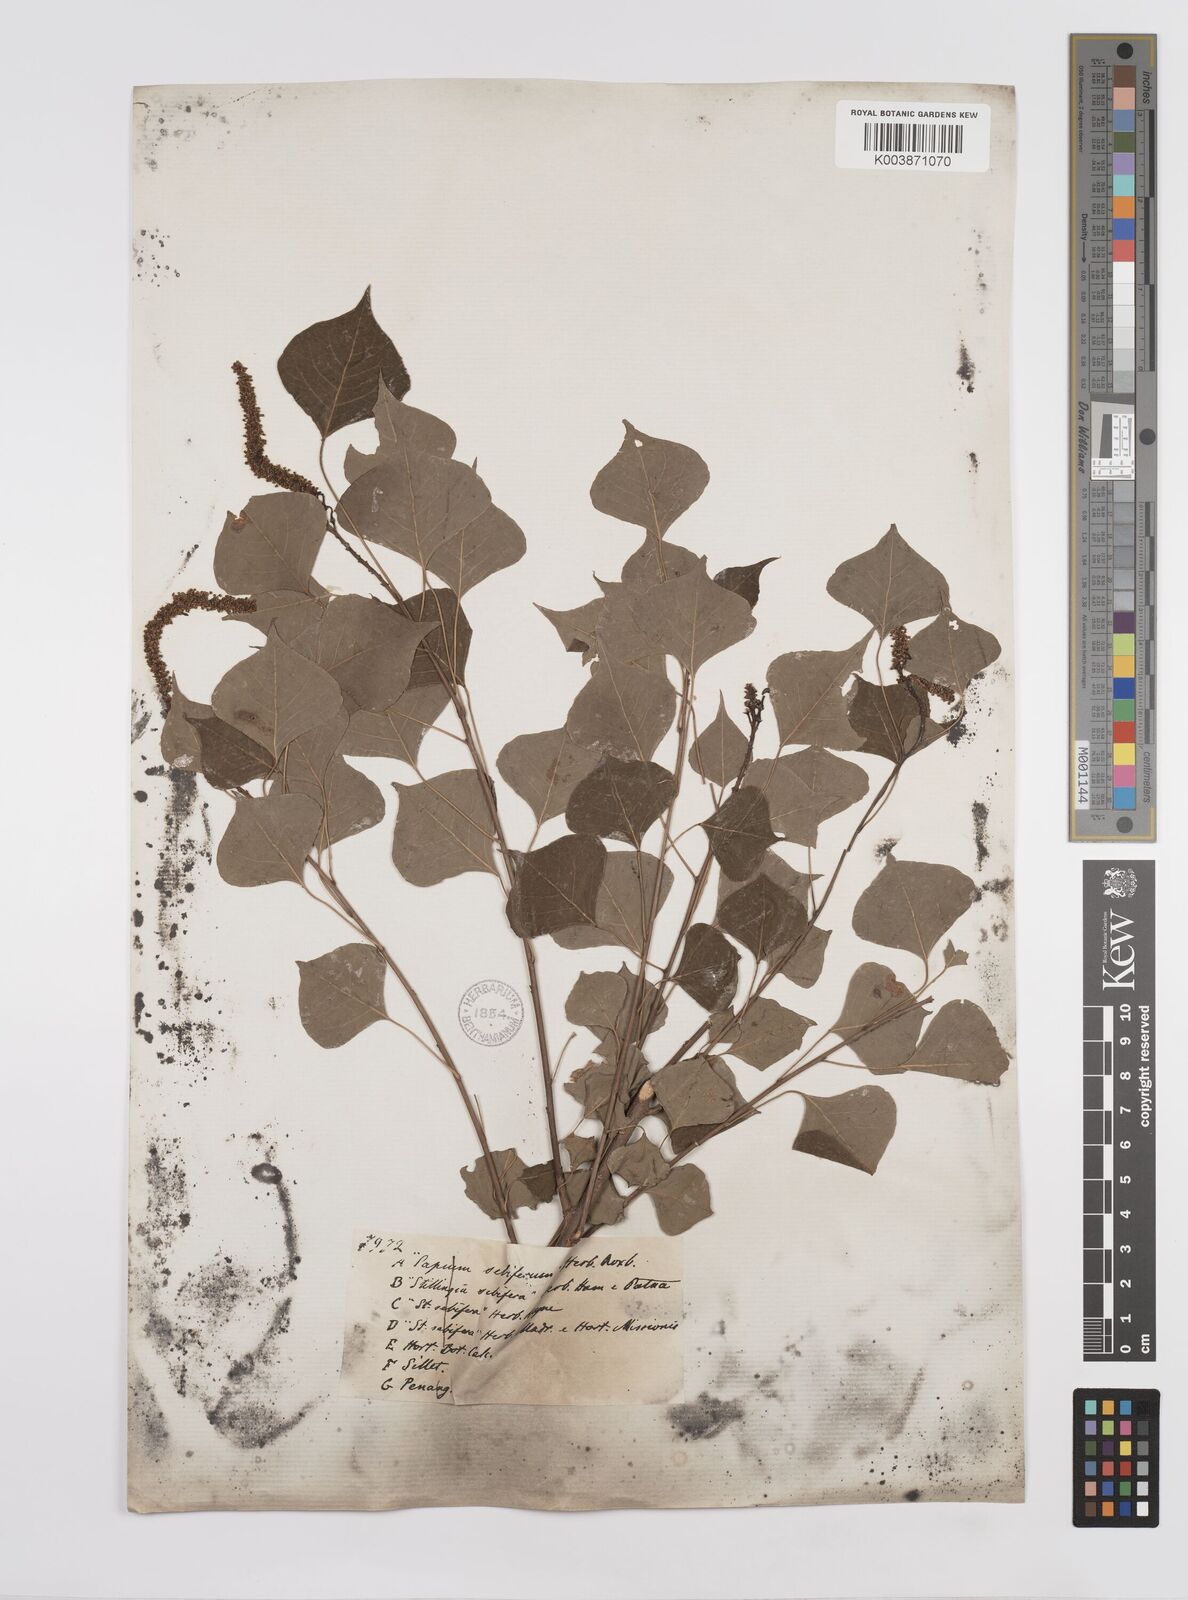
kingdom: Plantae
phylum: Tracheophyta
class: Magnoliopsida
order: Malpighiales
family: Euphorbiaceae
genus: Triadica
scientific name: Triadica sebifera
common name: Chinese tallow
